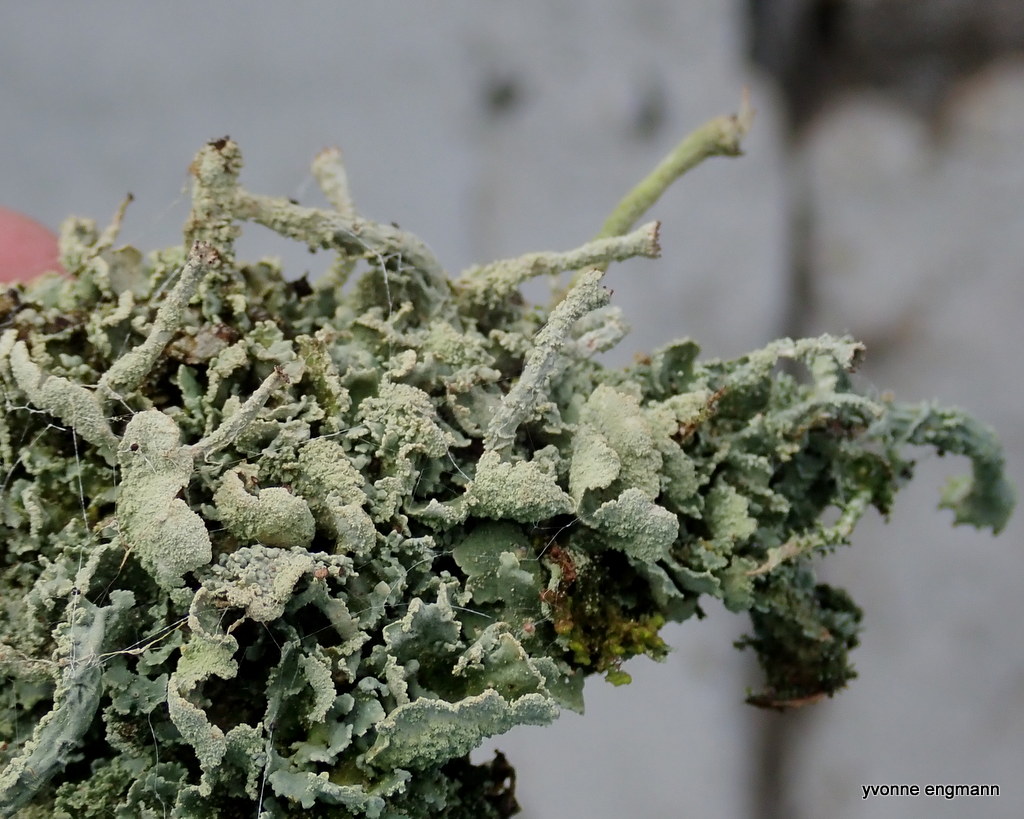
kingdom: Fungi
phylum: Ascomycota
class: Lecanoromycetes
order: Lecanorales
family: Cladoniaceae
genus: Cladonia
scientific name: Cladonia digitata
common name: finger-bægerlav
